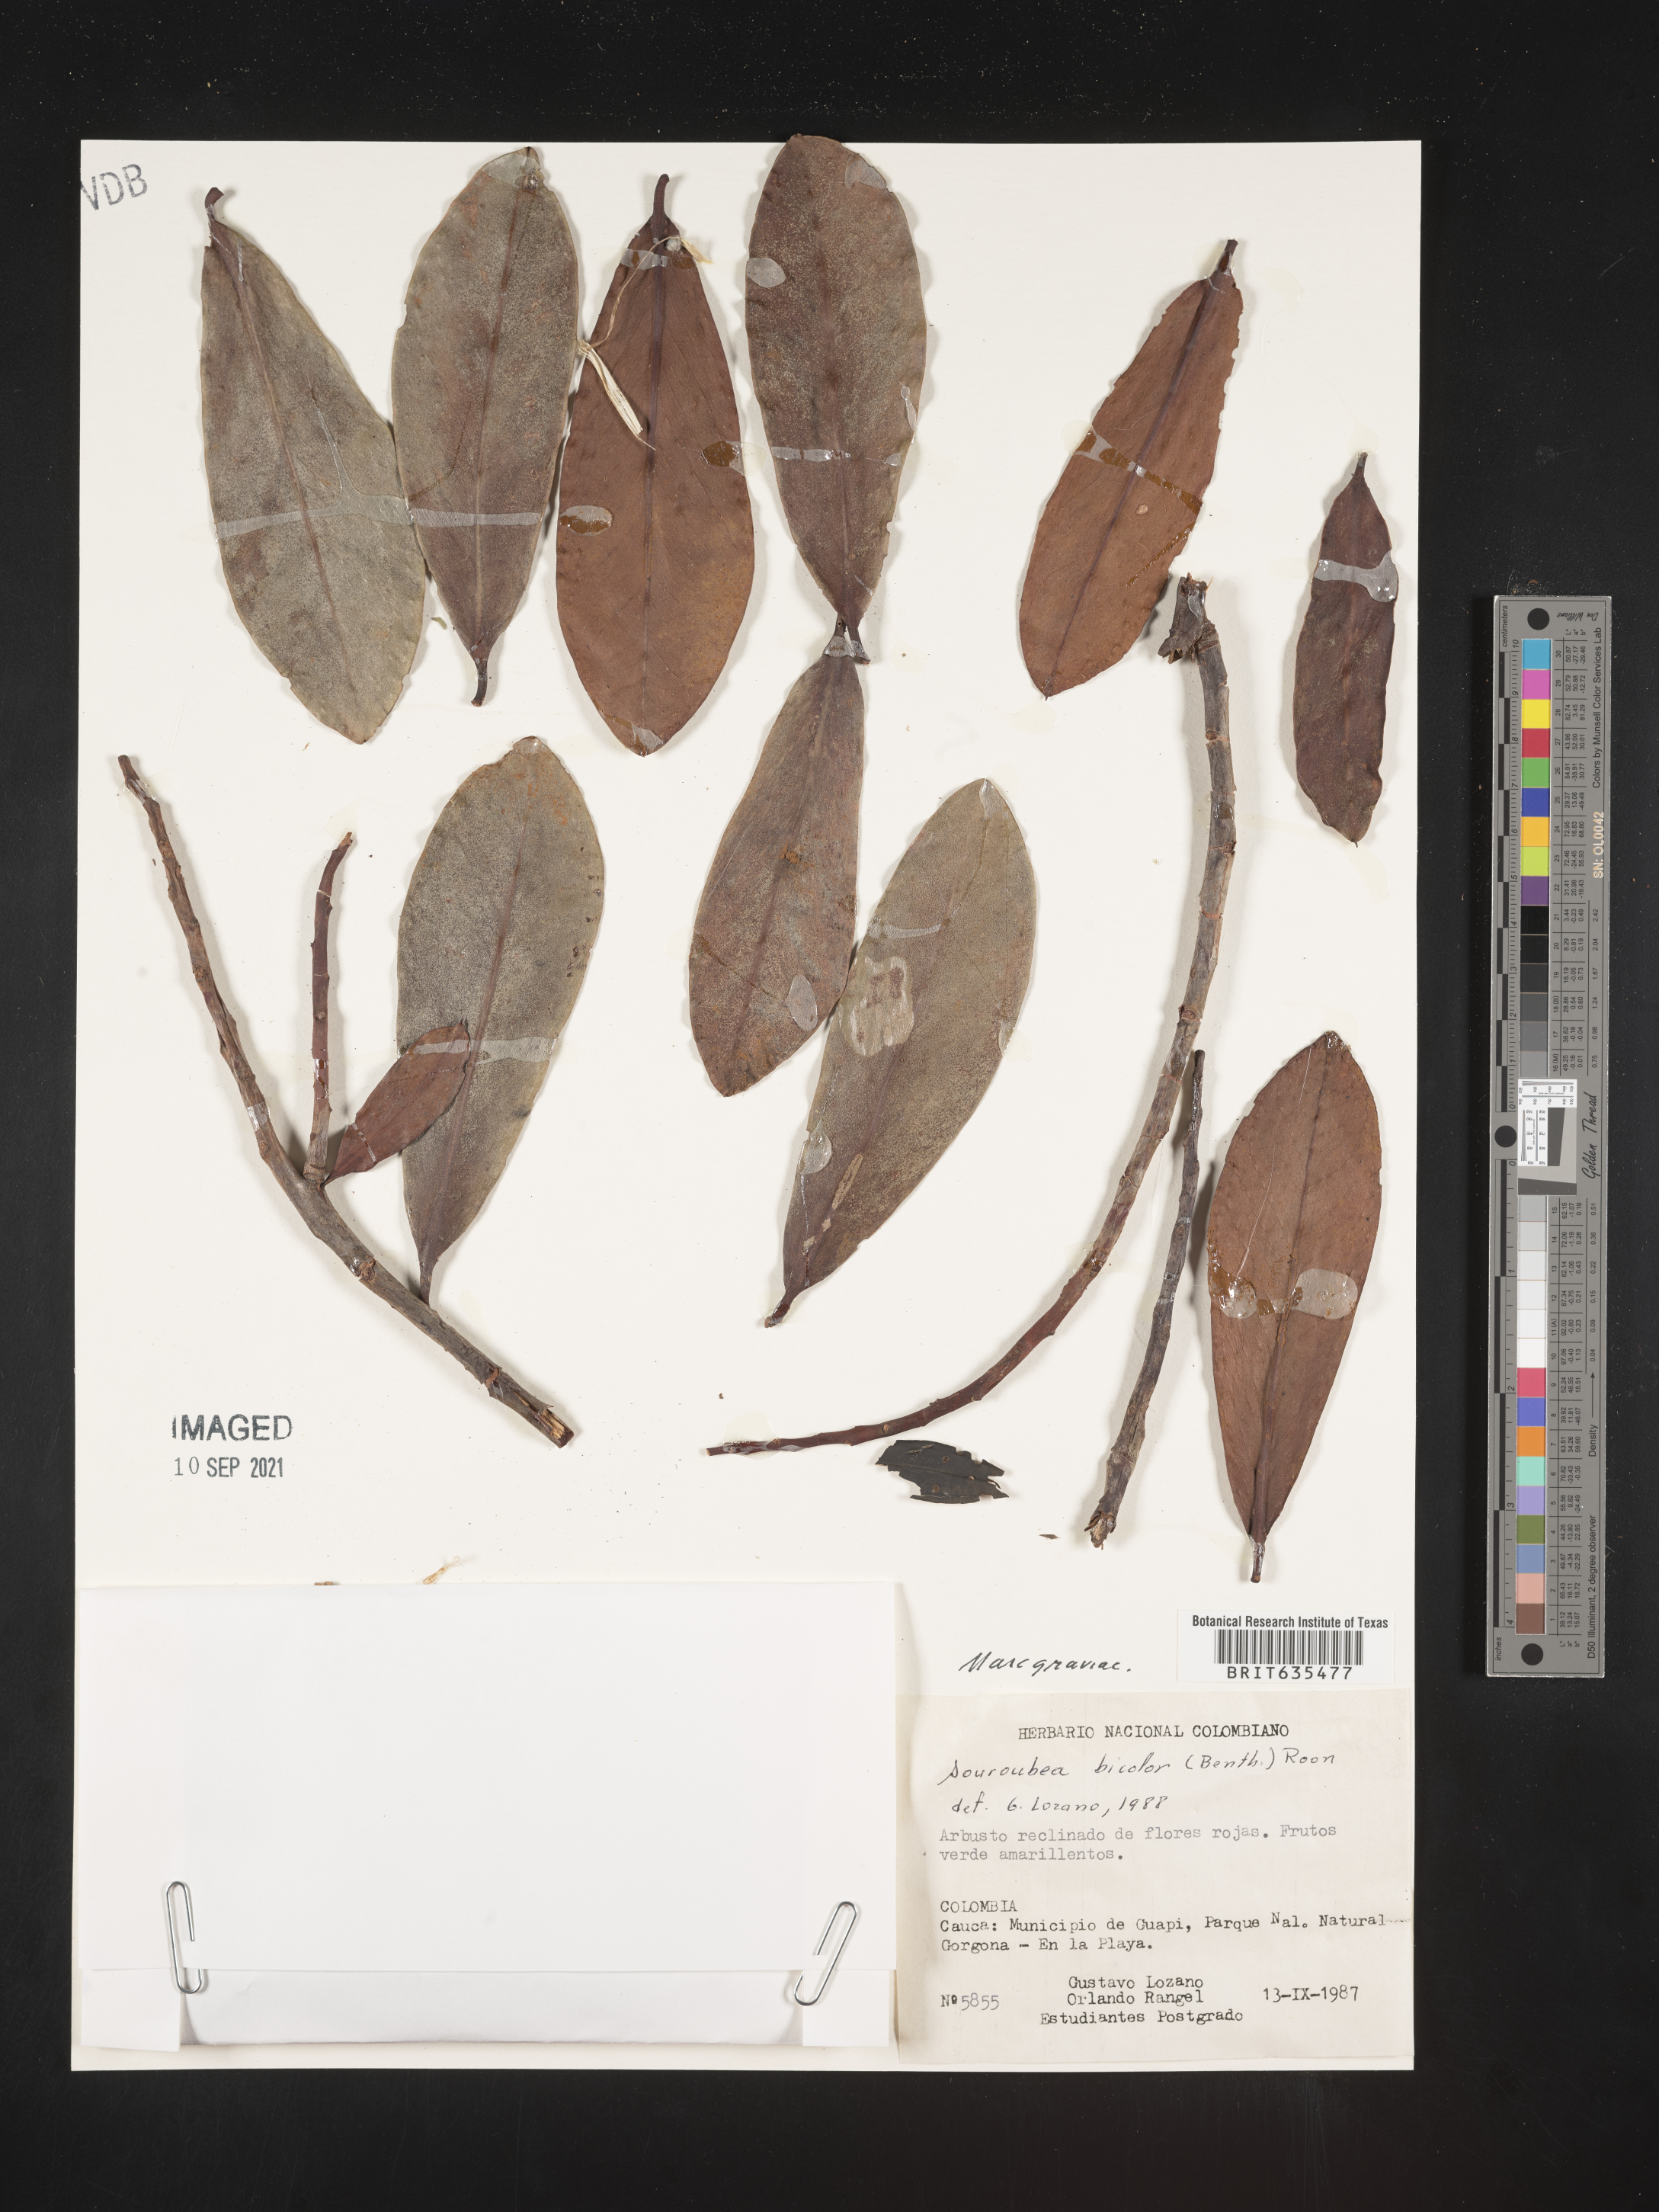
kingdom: Plantae
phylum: Tracheophyta
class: Magnoliopsida
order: Ericales
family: Marcgraviaceae
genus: Marcgravia
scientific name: Marcgravia
